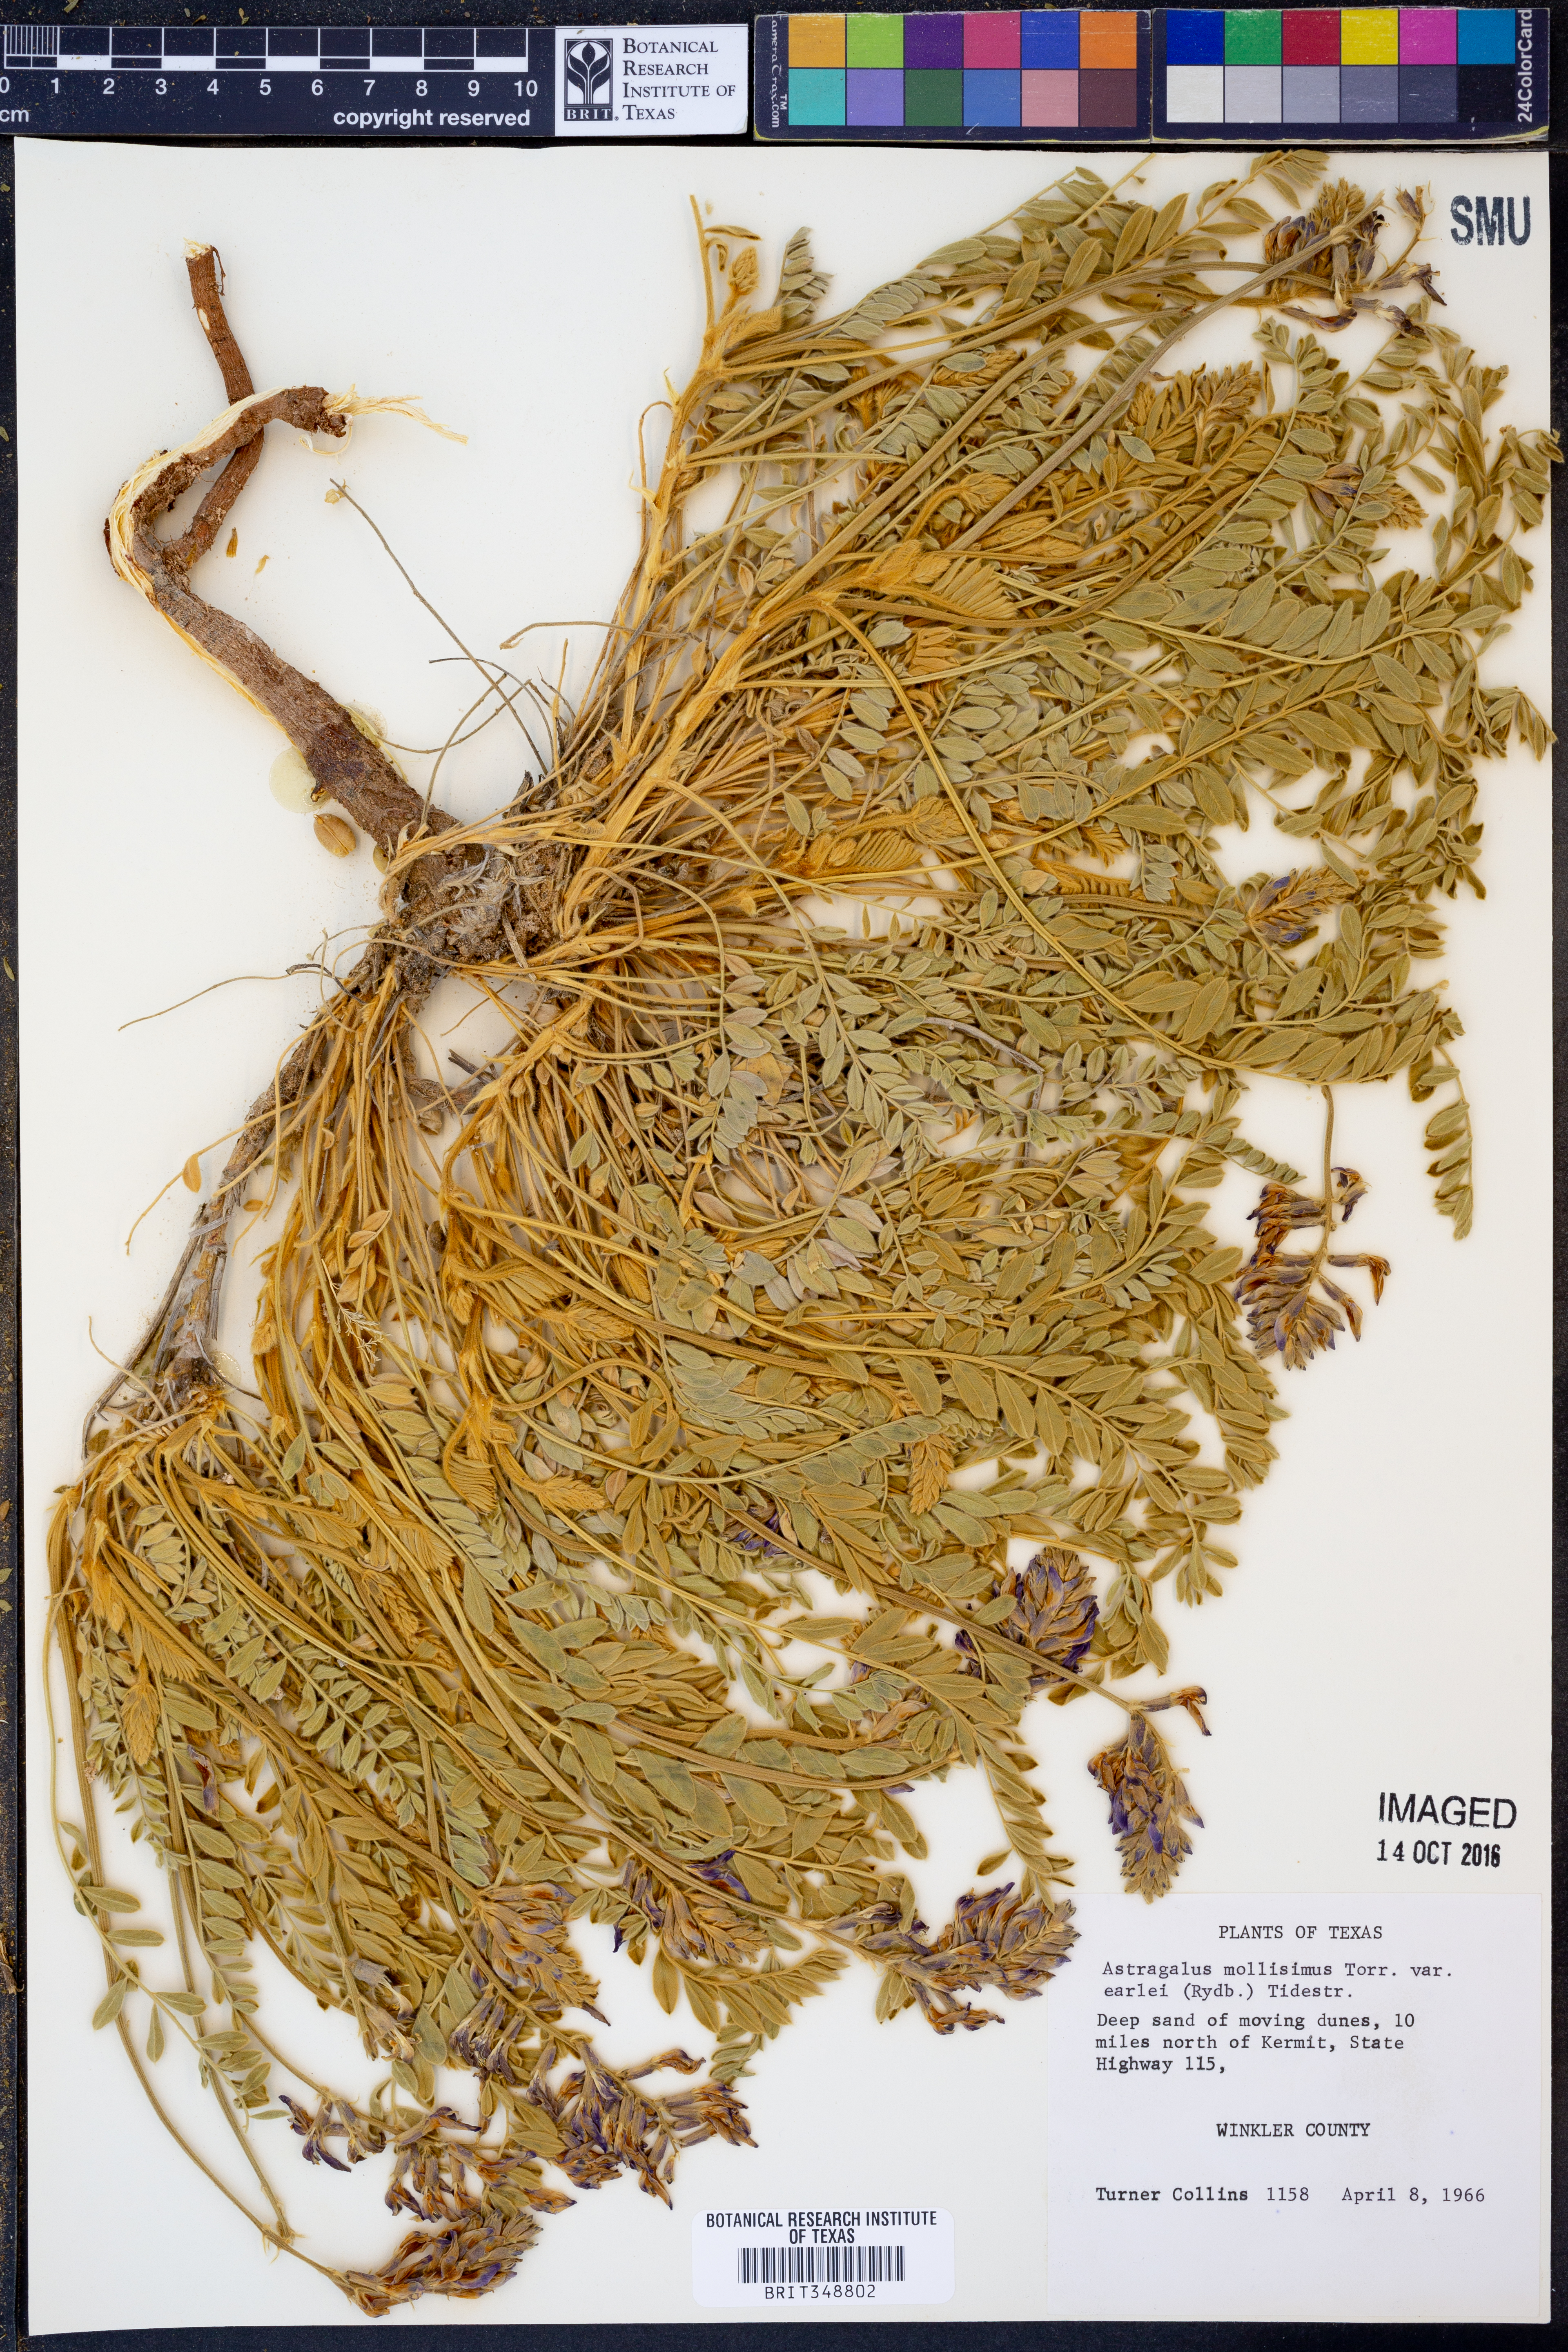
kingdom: Plantae
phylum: Tracheophyta
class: Magnoliopsida
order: Fabales
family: Fabaceae
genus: Astragalus
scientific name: Astragalus mollissimus
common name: Woolly locoweed
